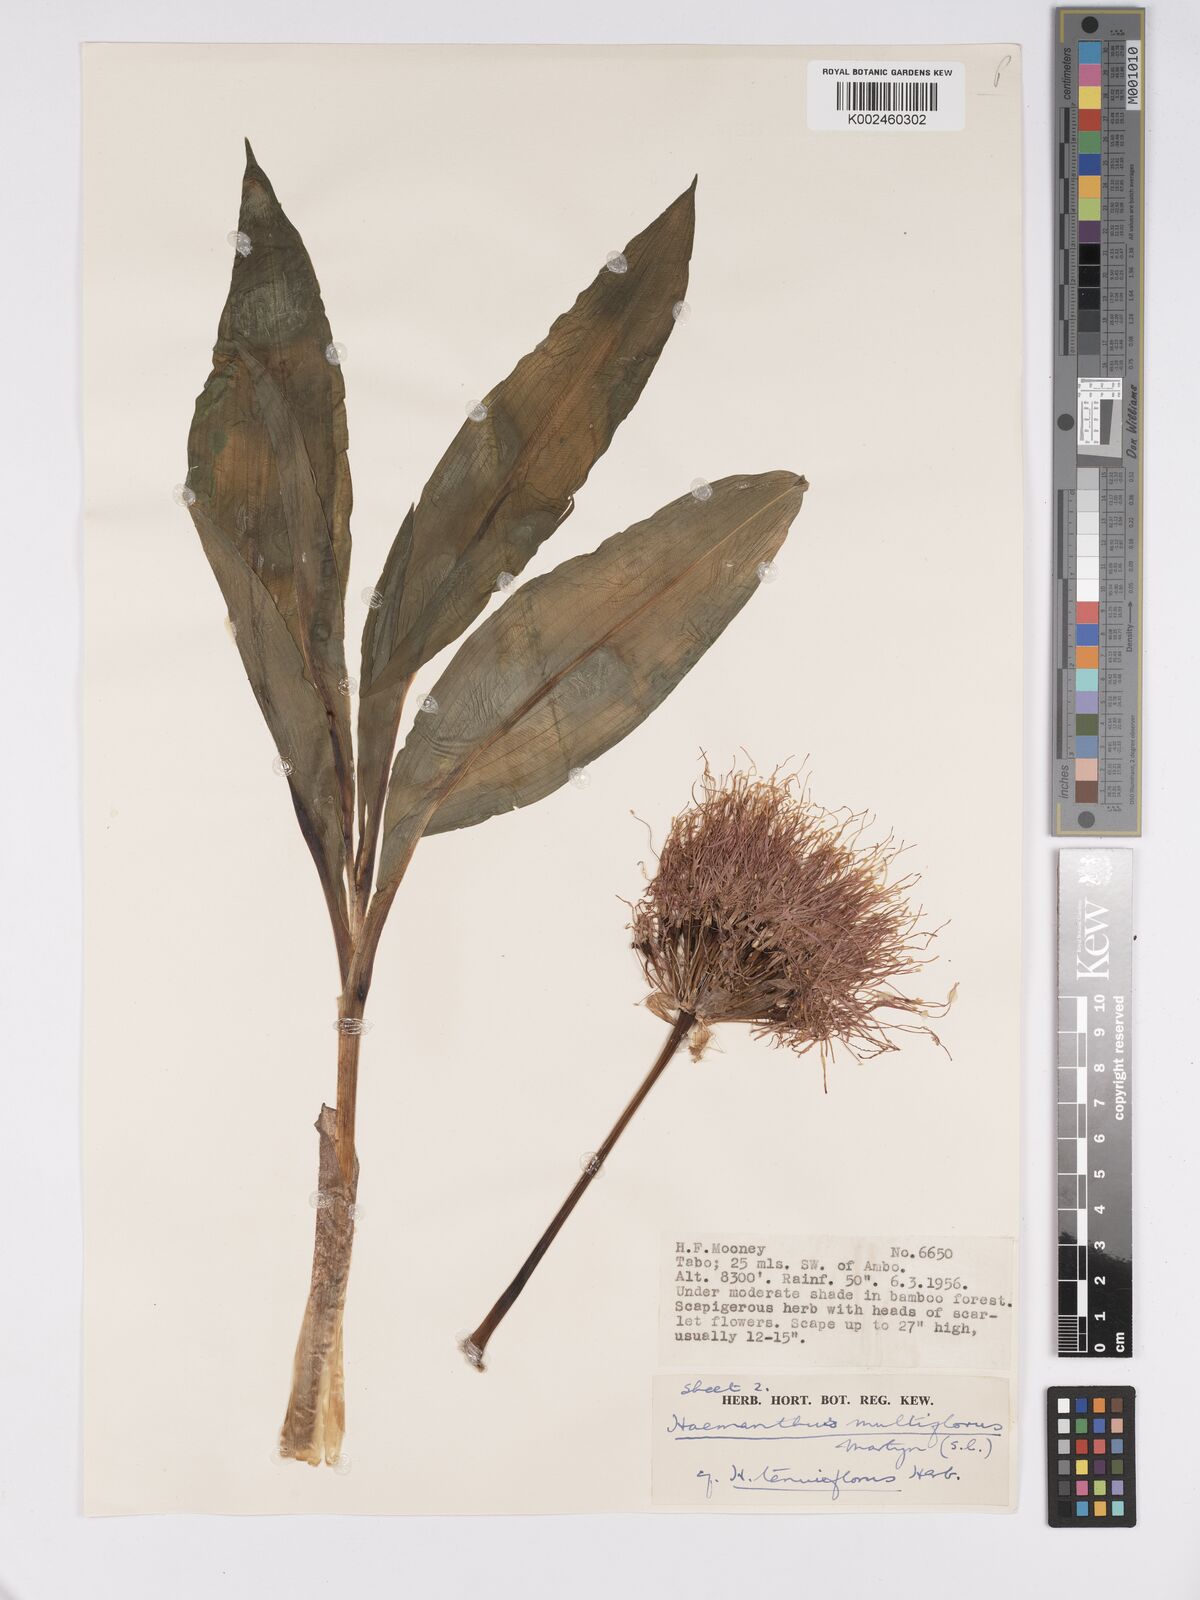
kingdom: Plantae
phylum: Tracheophyta
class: Liliopsida
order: Asparagales
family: Amaryllidaceae
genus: Scadoxus
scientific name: Scadoxus multiflorus
